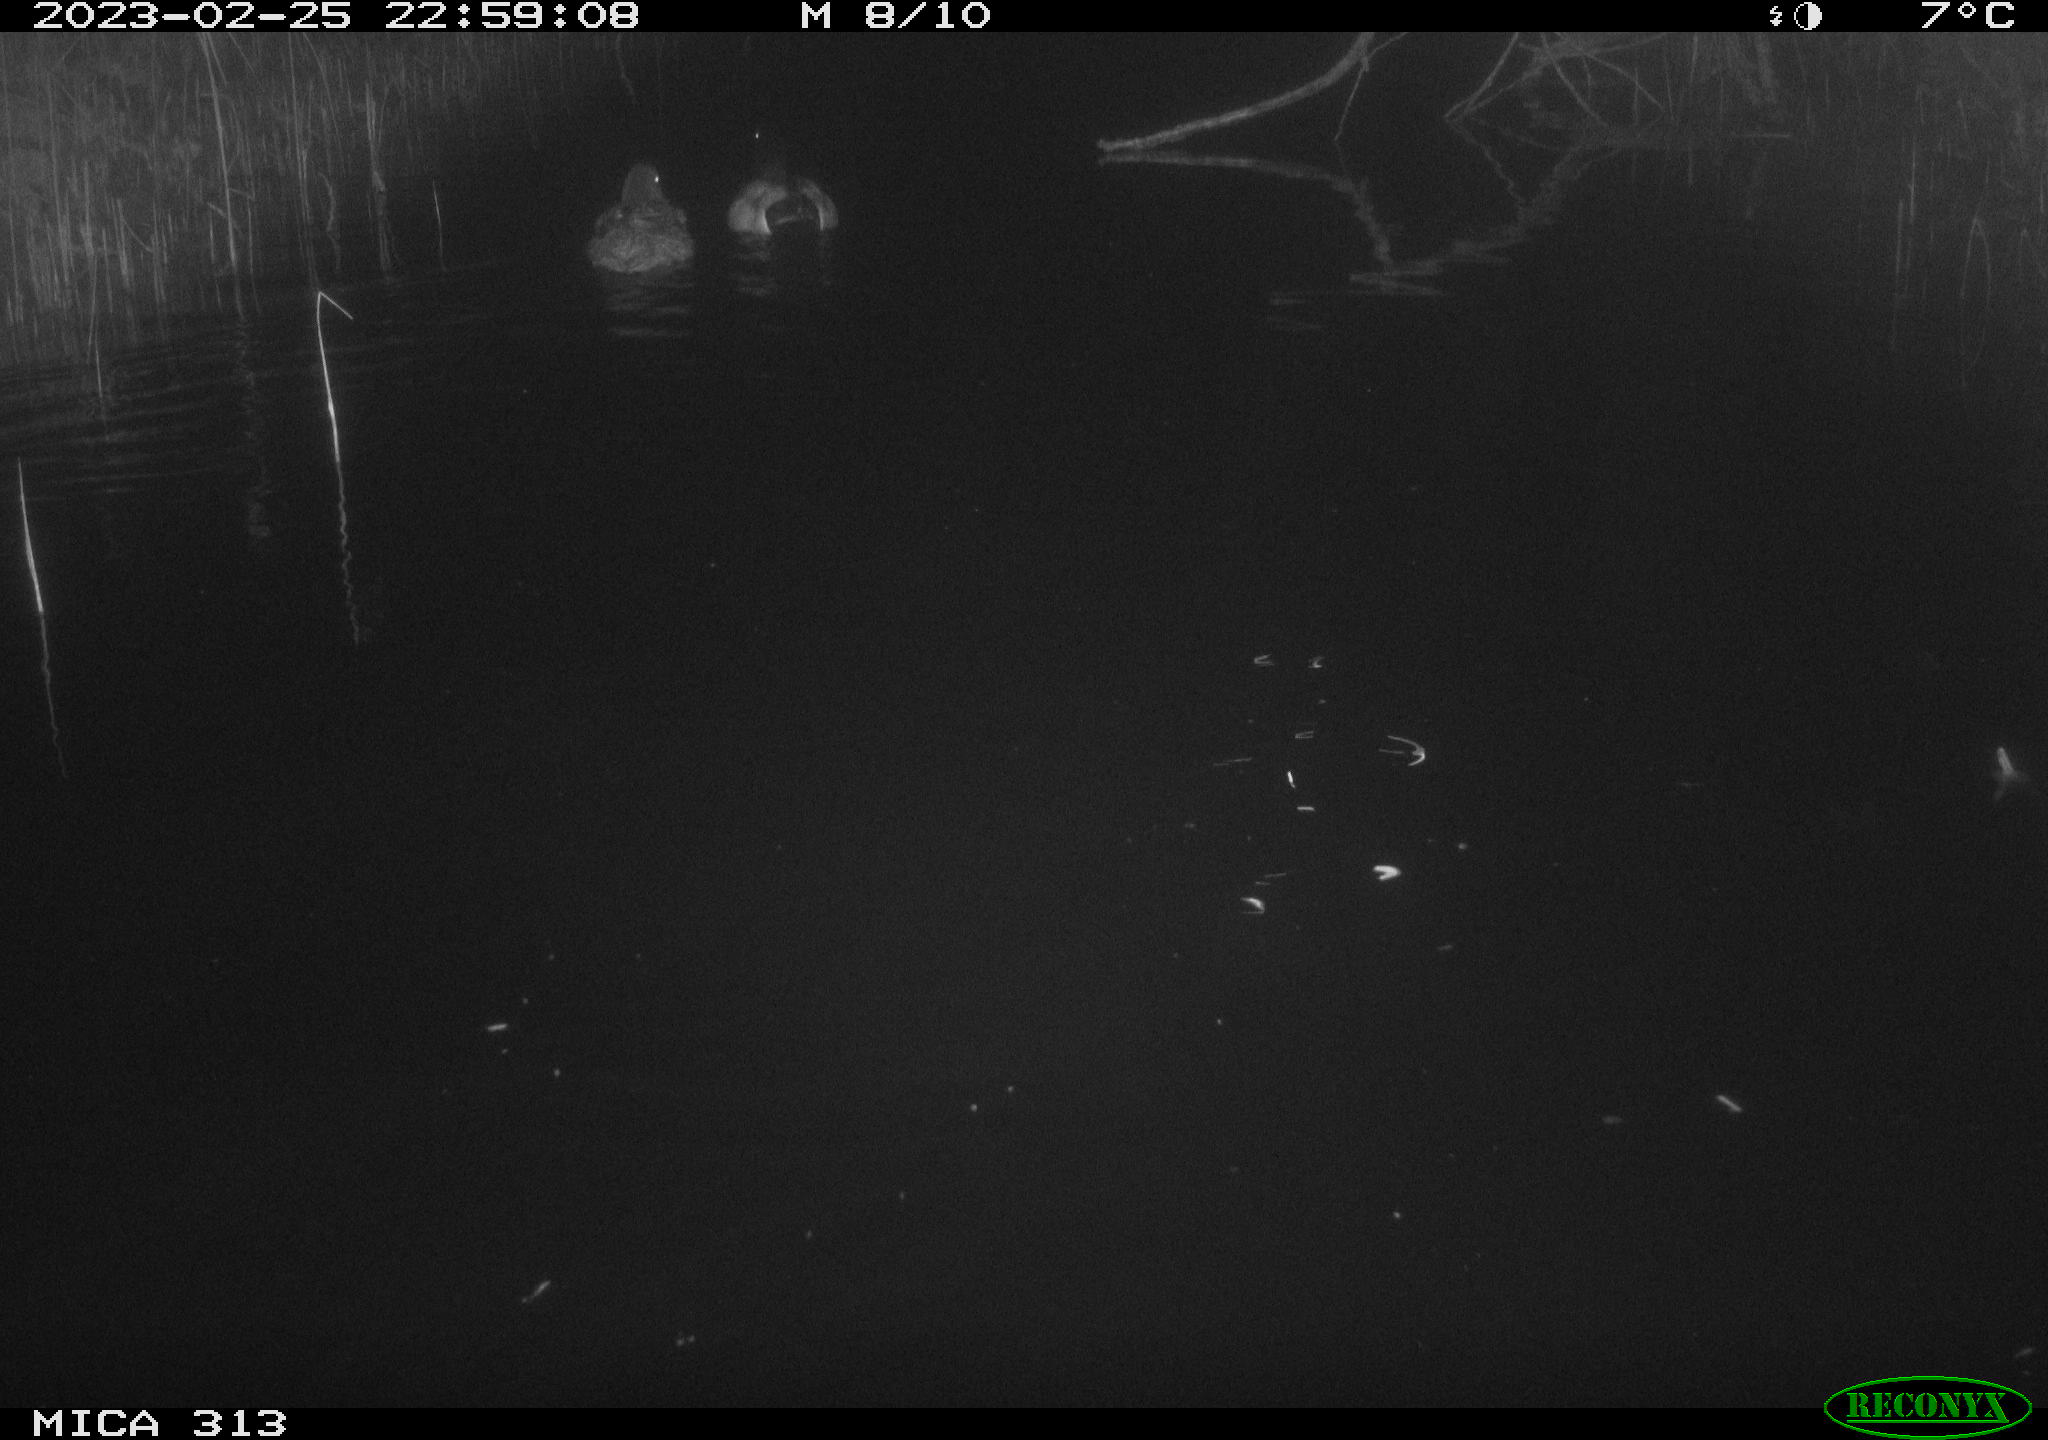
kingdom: Animalia
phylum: Chordata
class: Aves
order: Anseriformes
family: Anatidae
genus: Anas
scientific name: Anas
